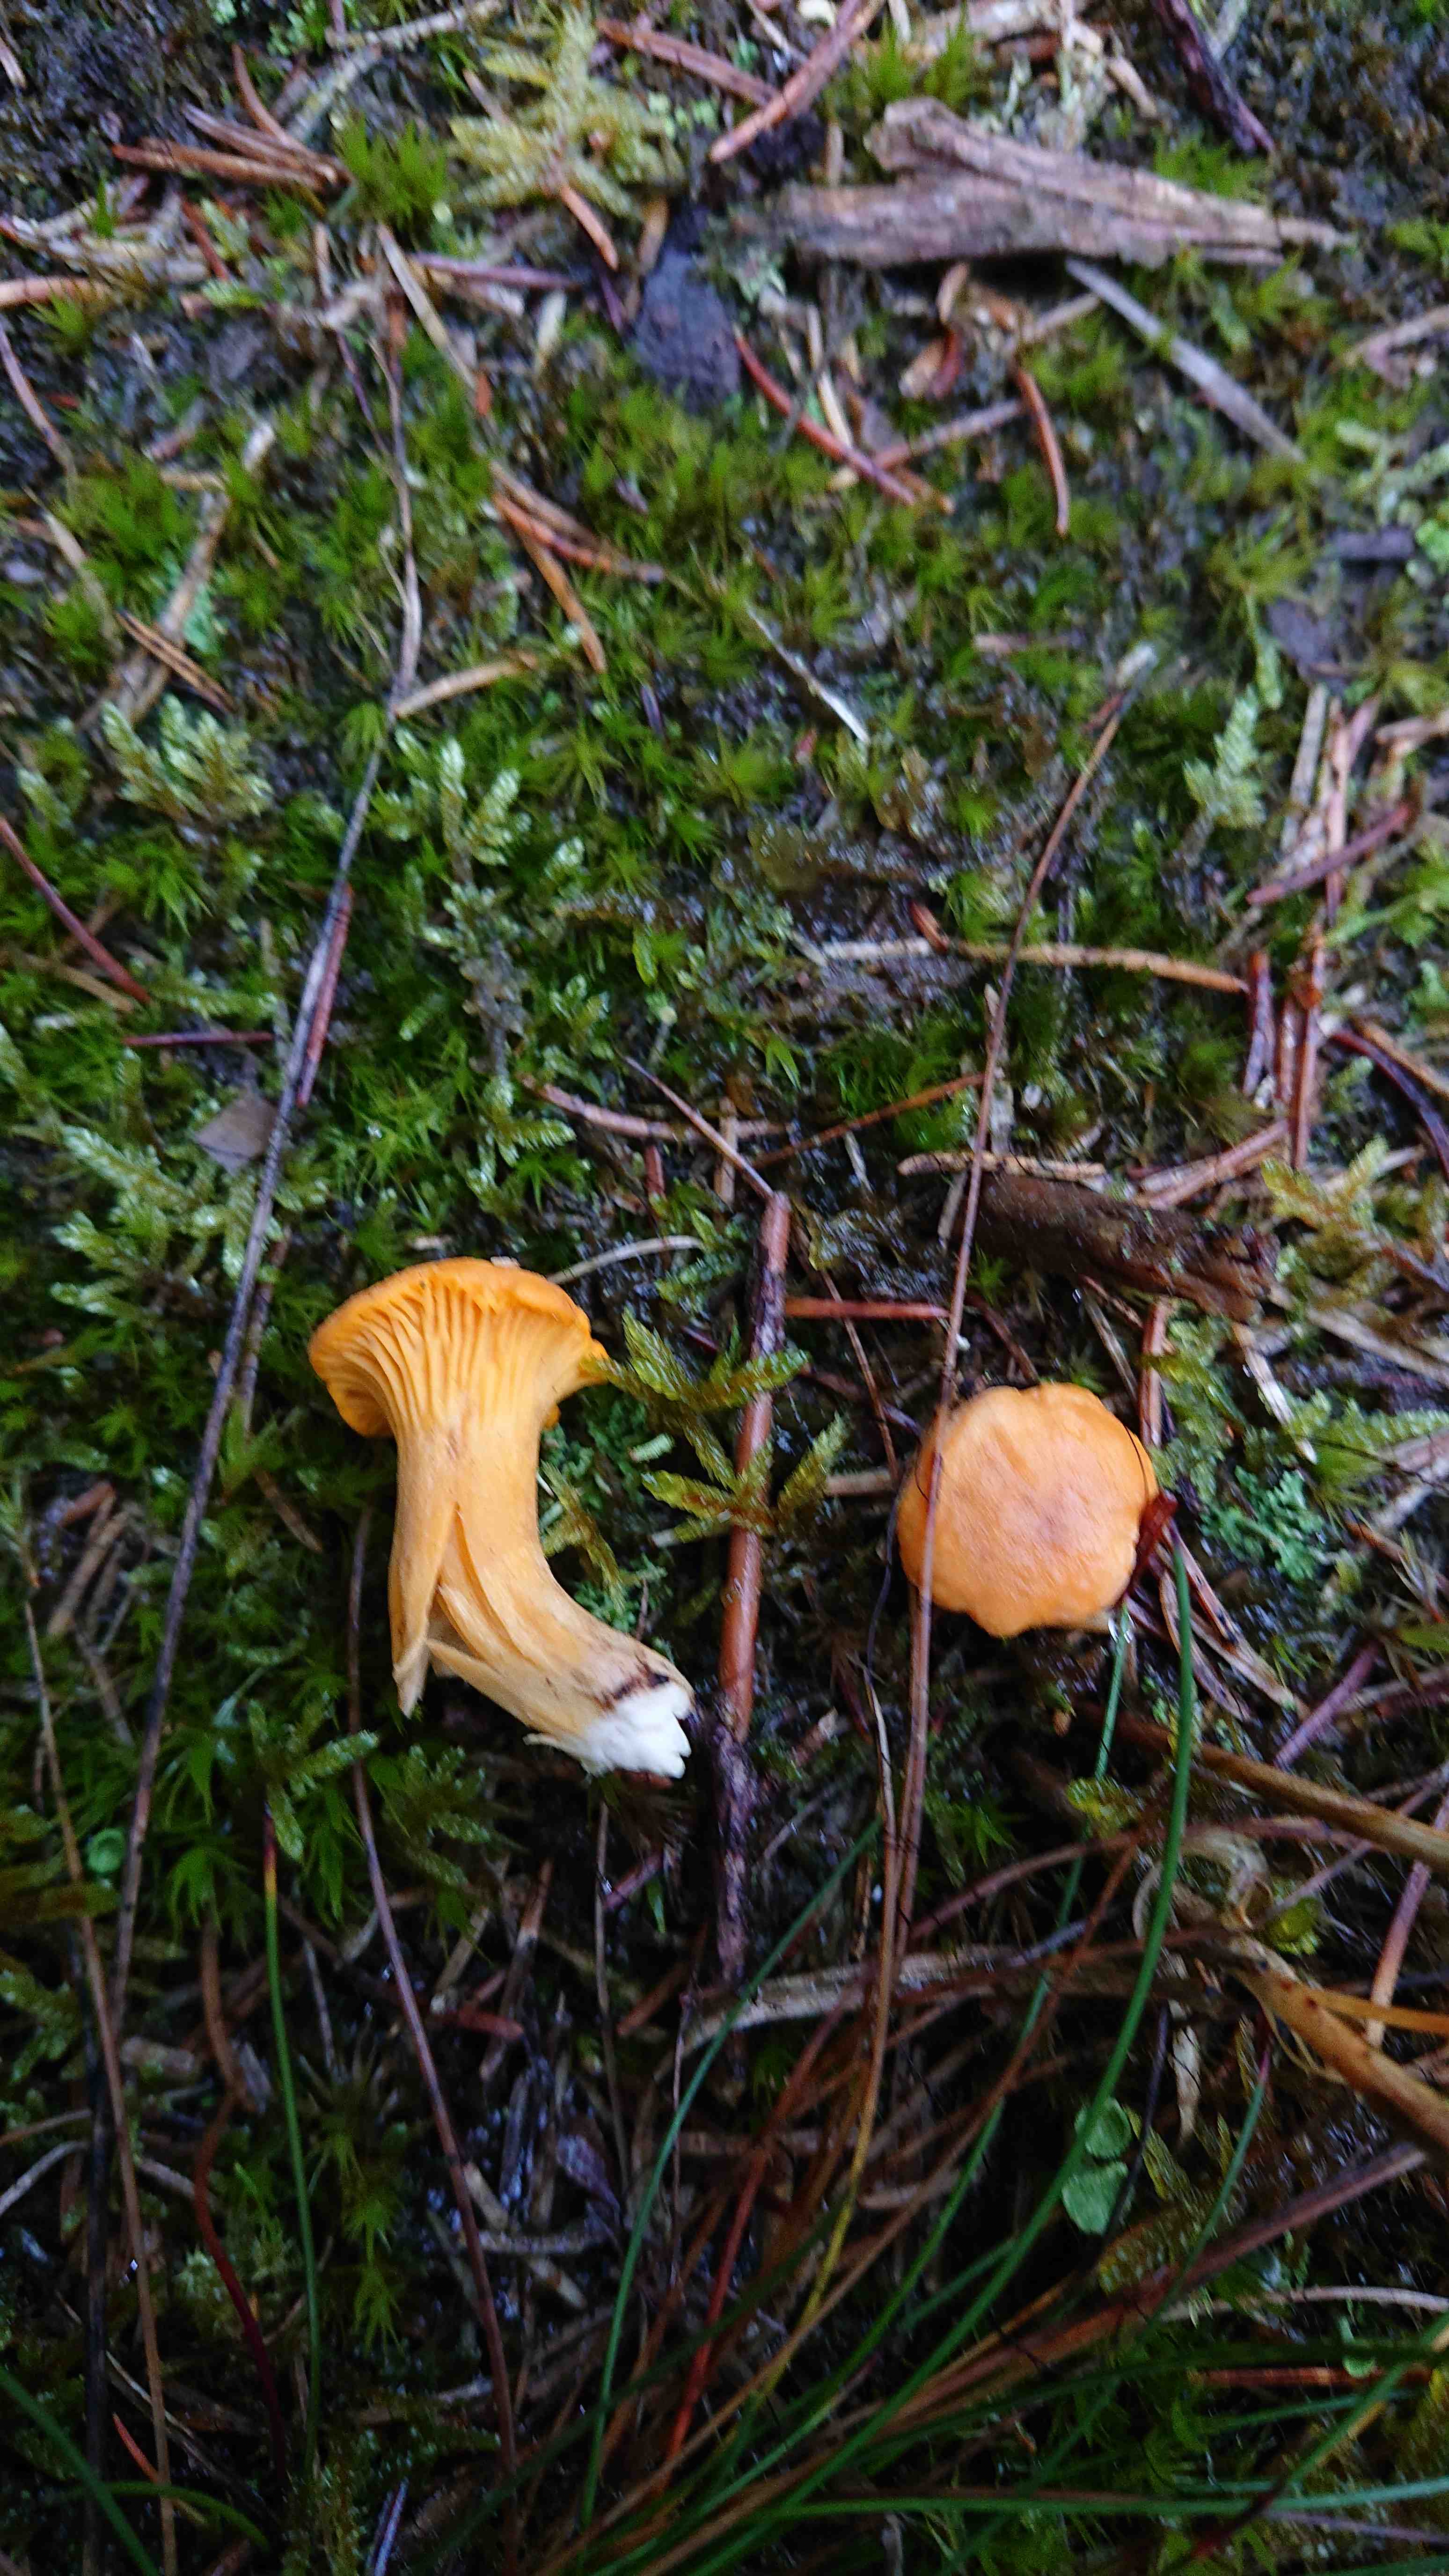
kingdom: Fungi
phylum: Basidiomycota
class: Agaricomycetes
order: Cantharellales
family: Hydnaceae
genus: Cantharellus
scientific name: Cantharellus cibarius
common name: almindelig kantarel
